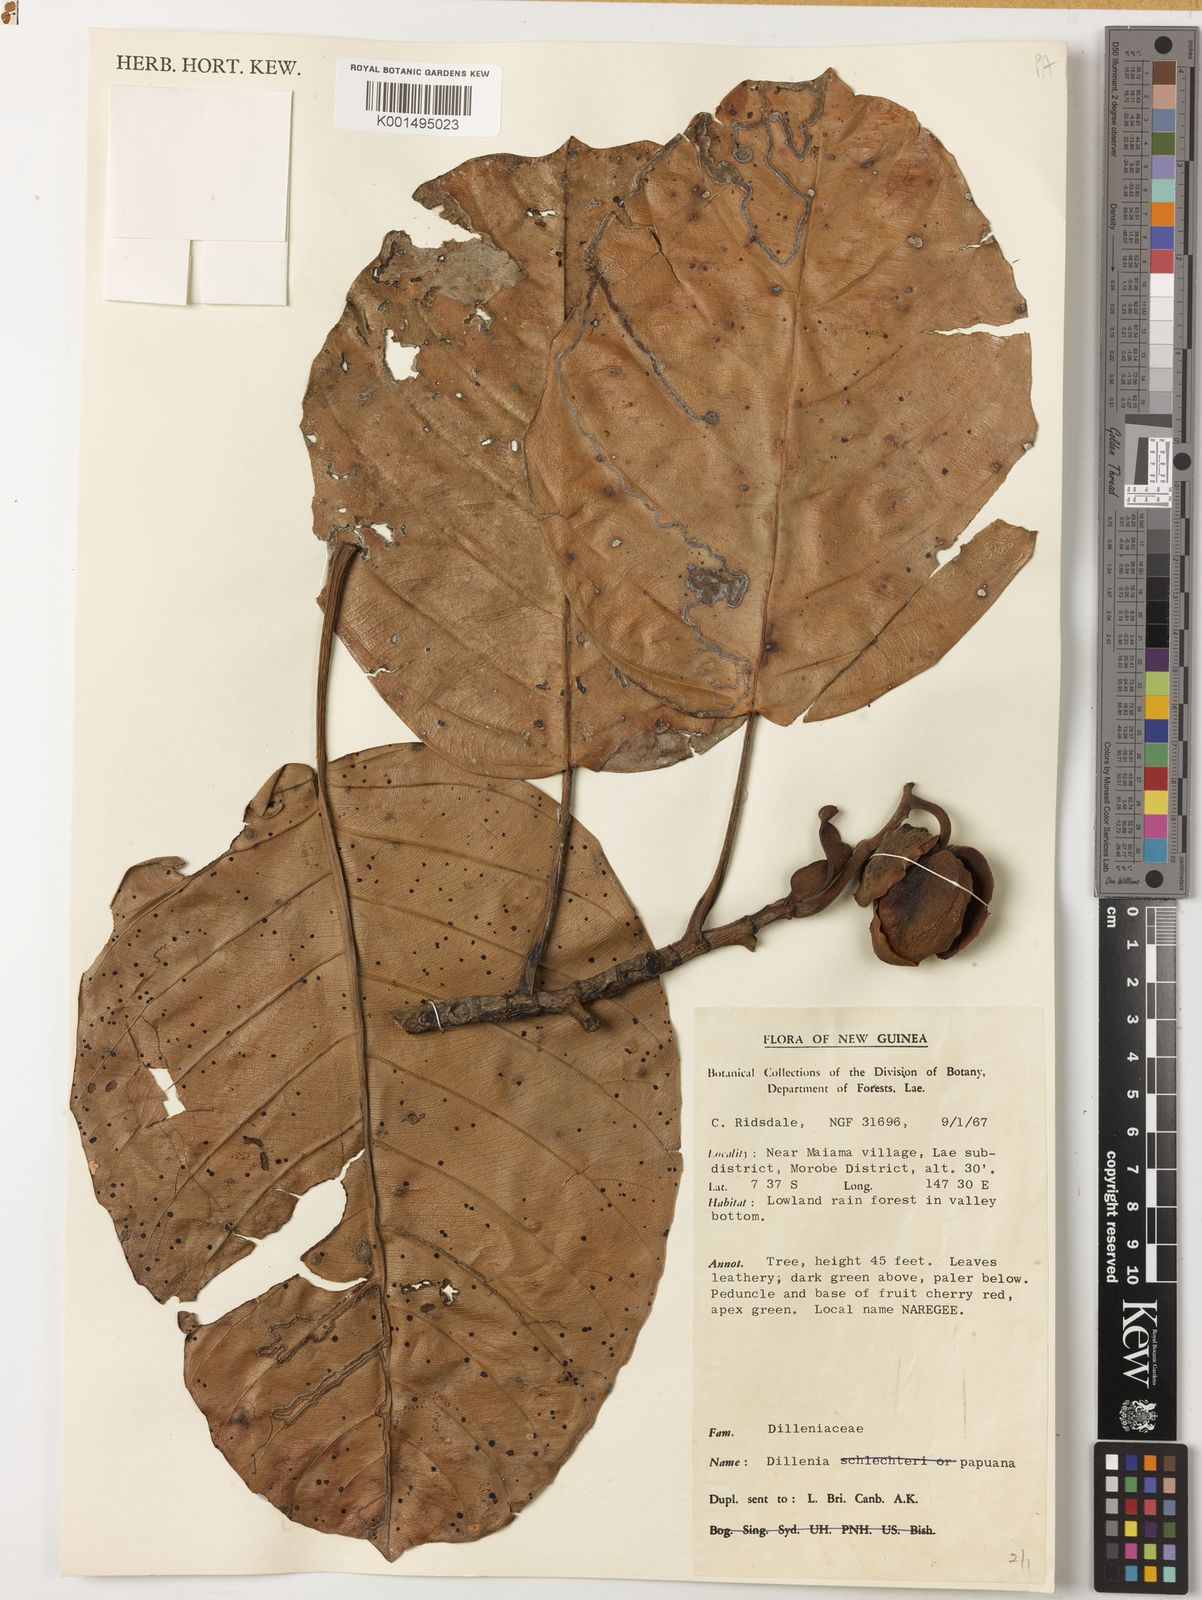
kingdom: Plantae
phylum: Tracheophyta
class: Magnoliopsida
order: Dilleniales
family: Dilleniaceae
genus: Dillenia
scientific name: Dillenia papuana
